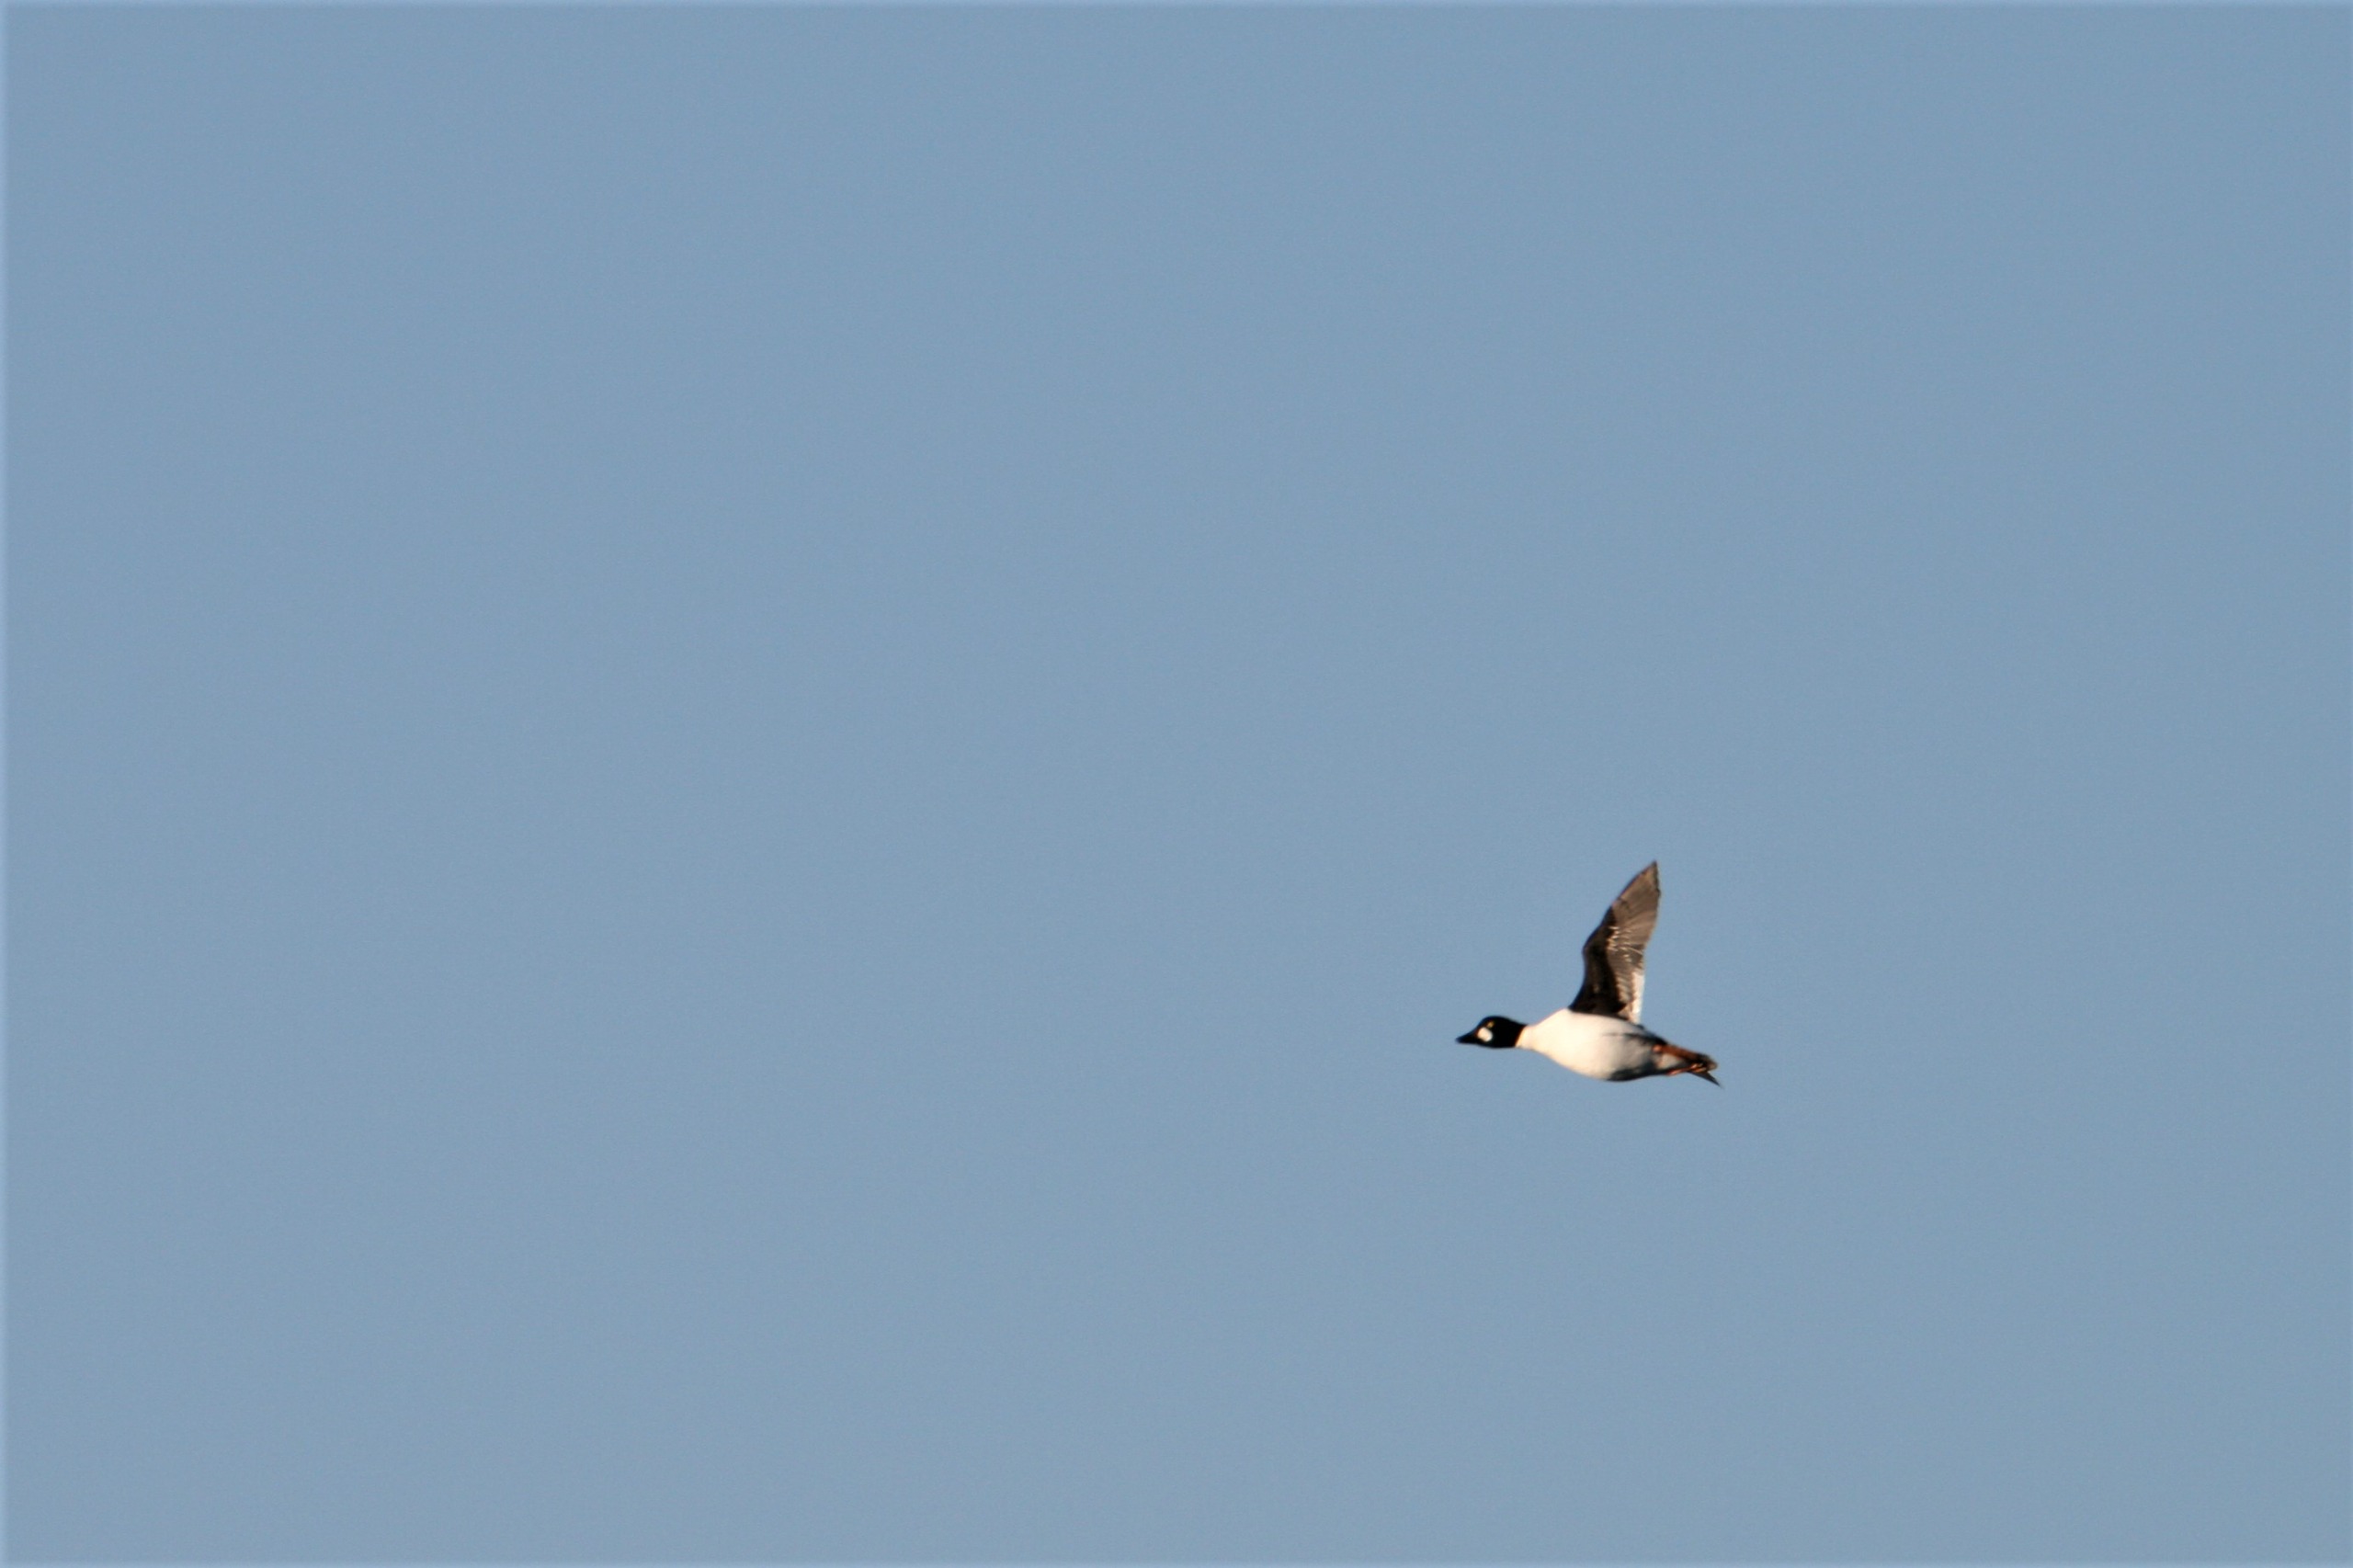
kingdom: Animalia
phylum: Chordata
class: Aves
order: Anseriformes
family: Anatidae
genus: Bucephala
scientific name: Bucephala clangula
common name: Hvinand
